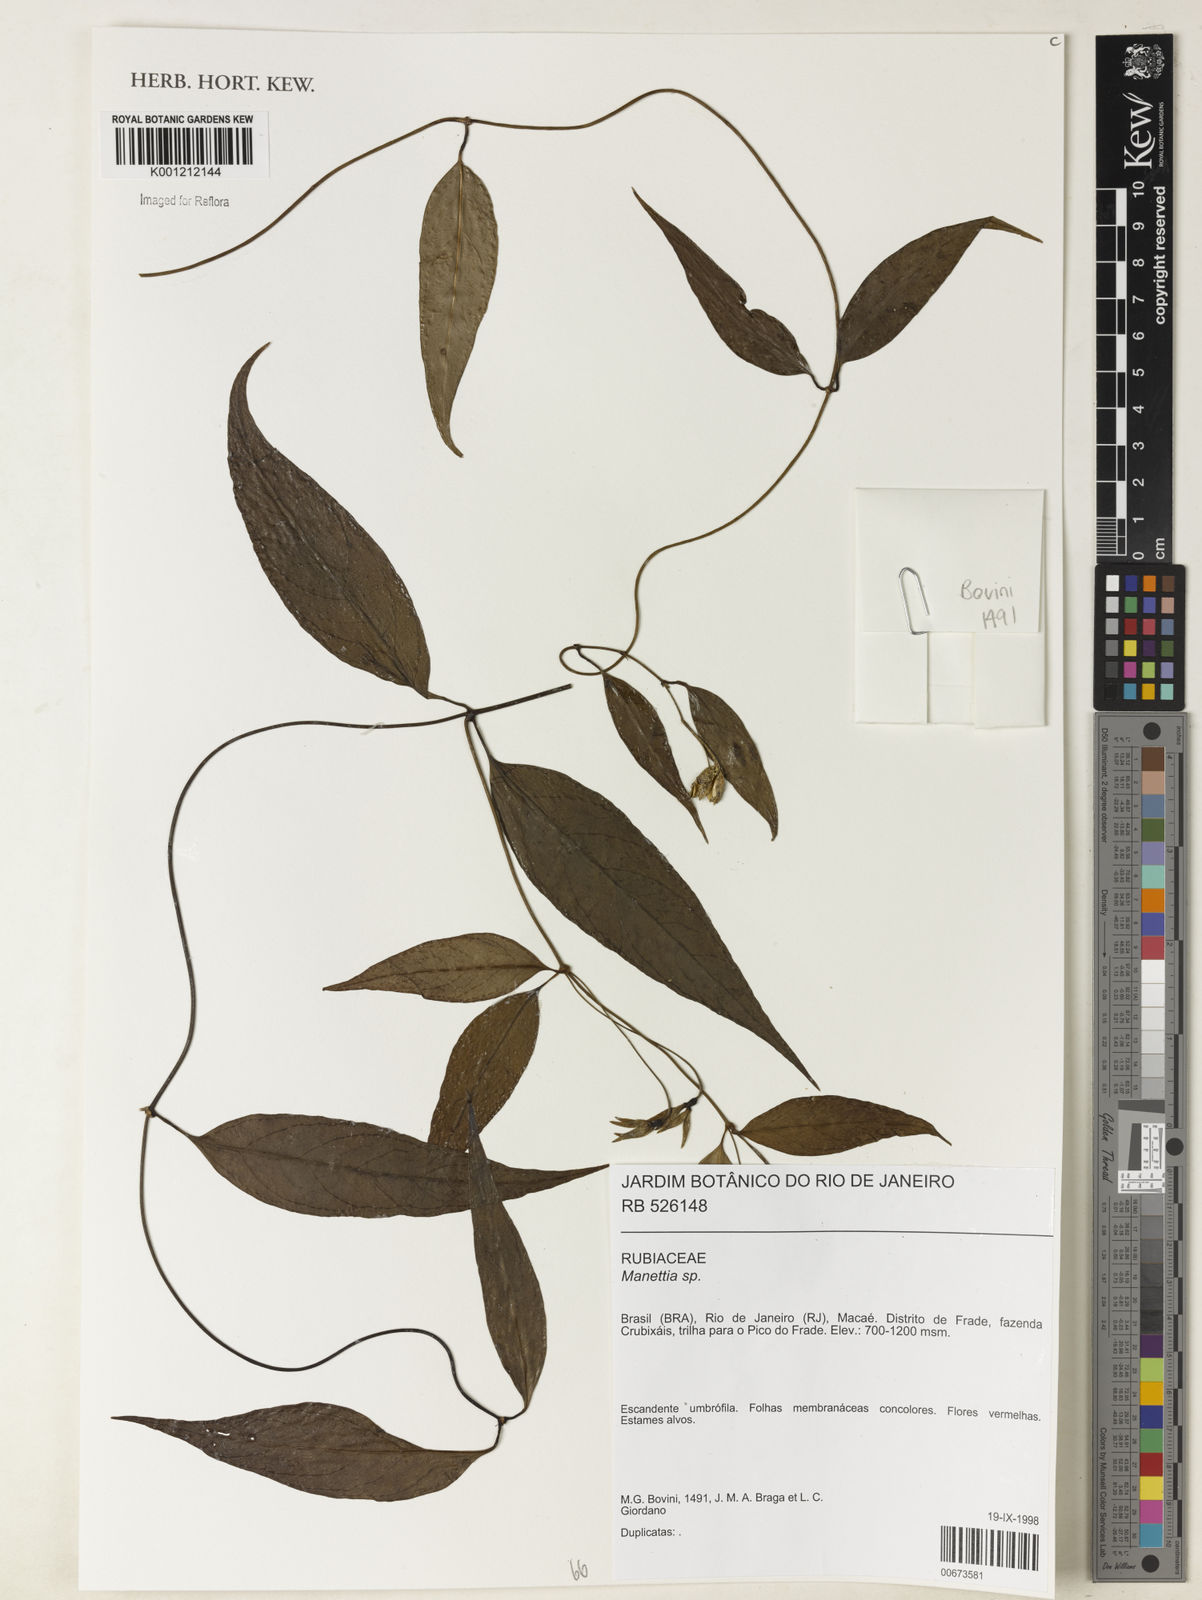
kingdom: Plantae
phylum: Tracheophyta
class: Magnoliopsida
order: Gentianales
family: Rubiaceae
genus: Manettia
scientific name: Manettia
